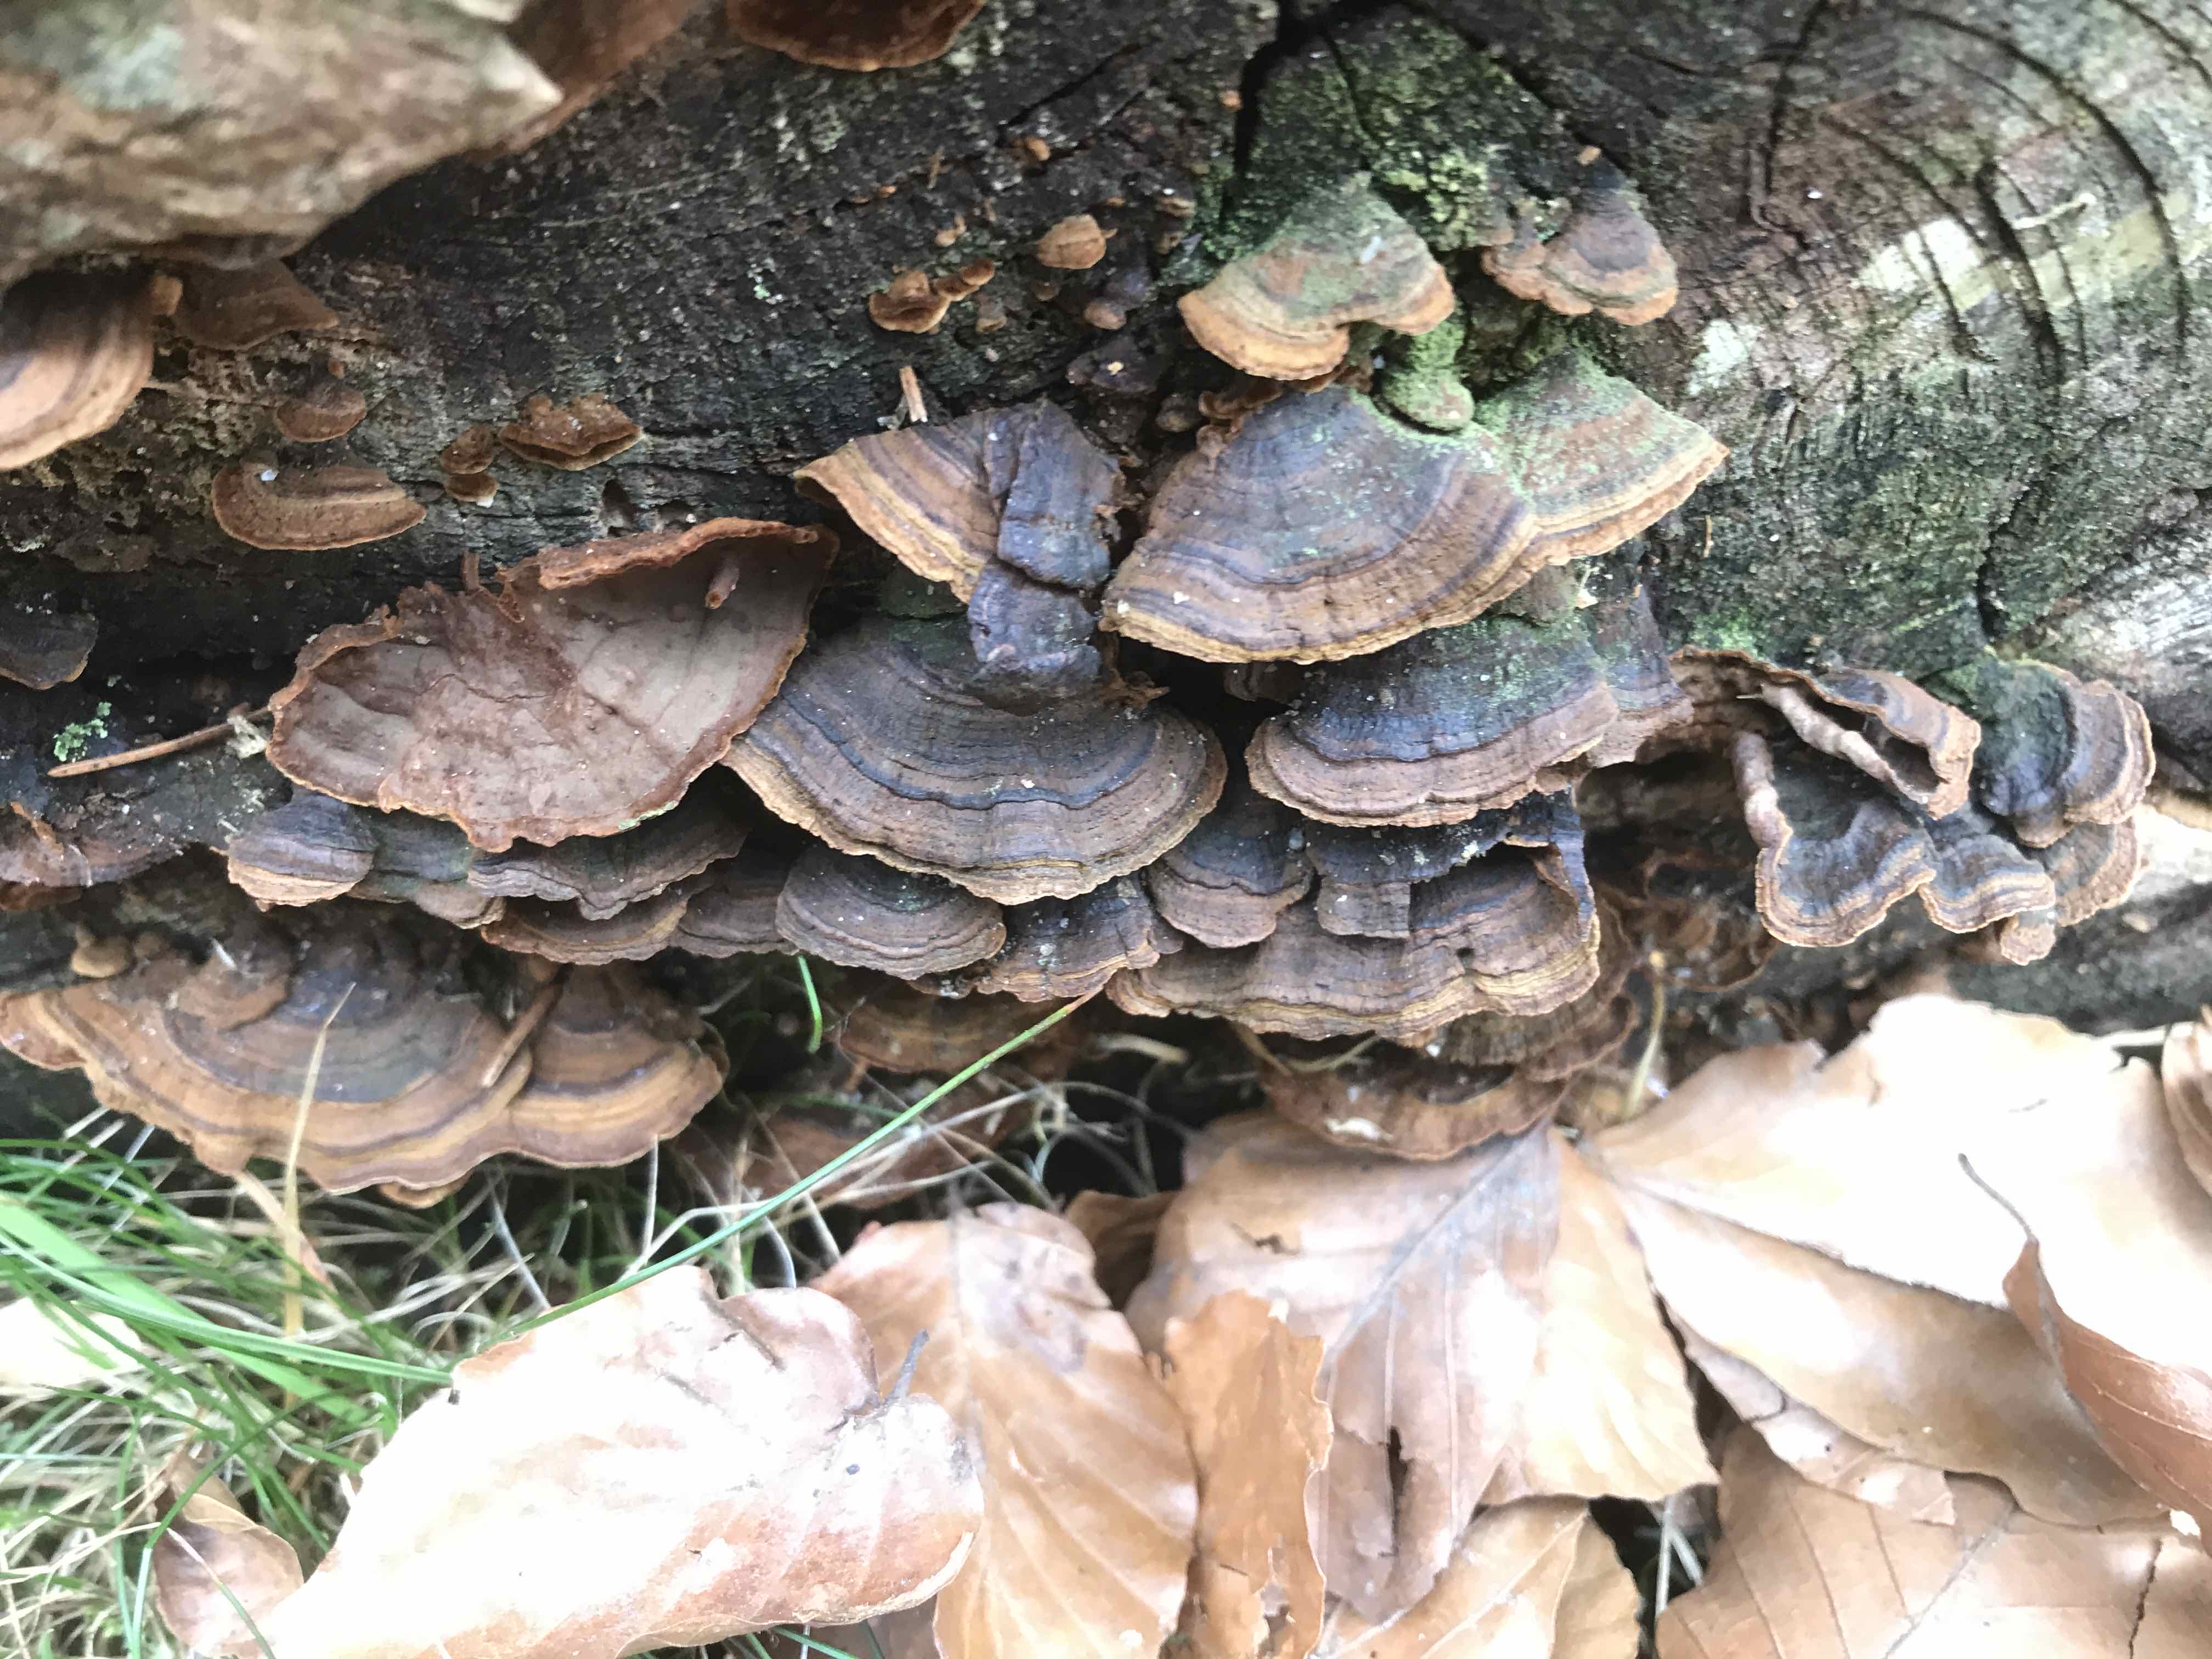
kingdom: Fungi
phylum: Basidiomycota
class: Agaricomycetes
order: Hymenochaetales
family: Hymenochaetaceae
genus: Hymenochaete
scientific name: Hymenochaete rubiginosa
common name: stiv ruslædersvamp
